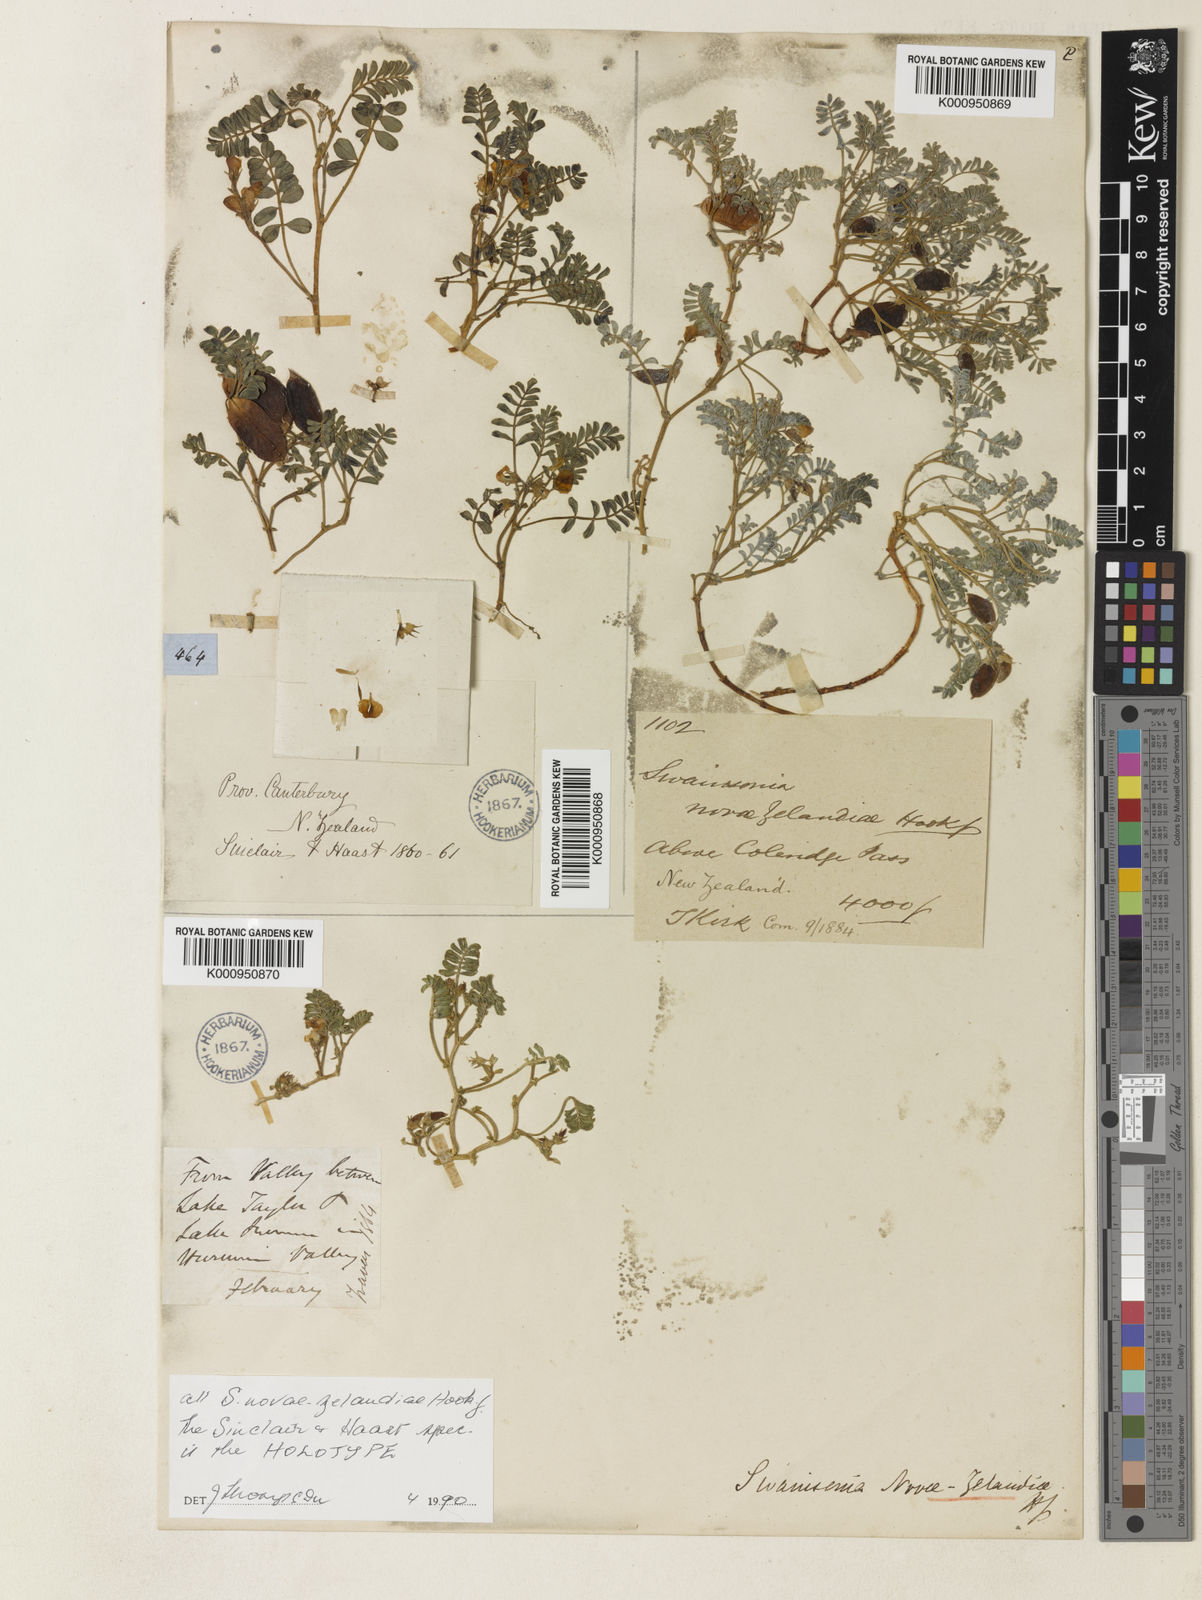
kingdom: Plantae
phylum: Tracheophyta
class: Magnoliopsida
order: Fabales
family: Fabaceae
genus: Montigena
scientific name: Montigena novae-zelandiae
